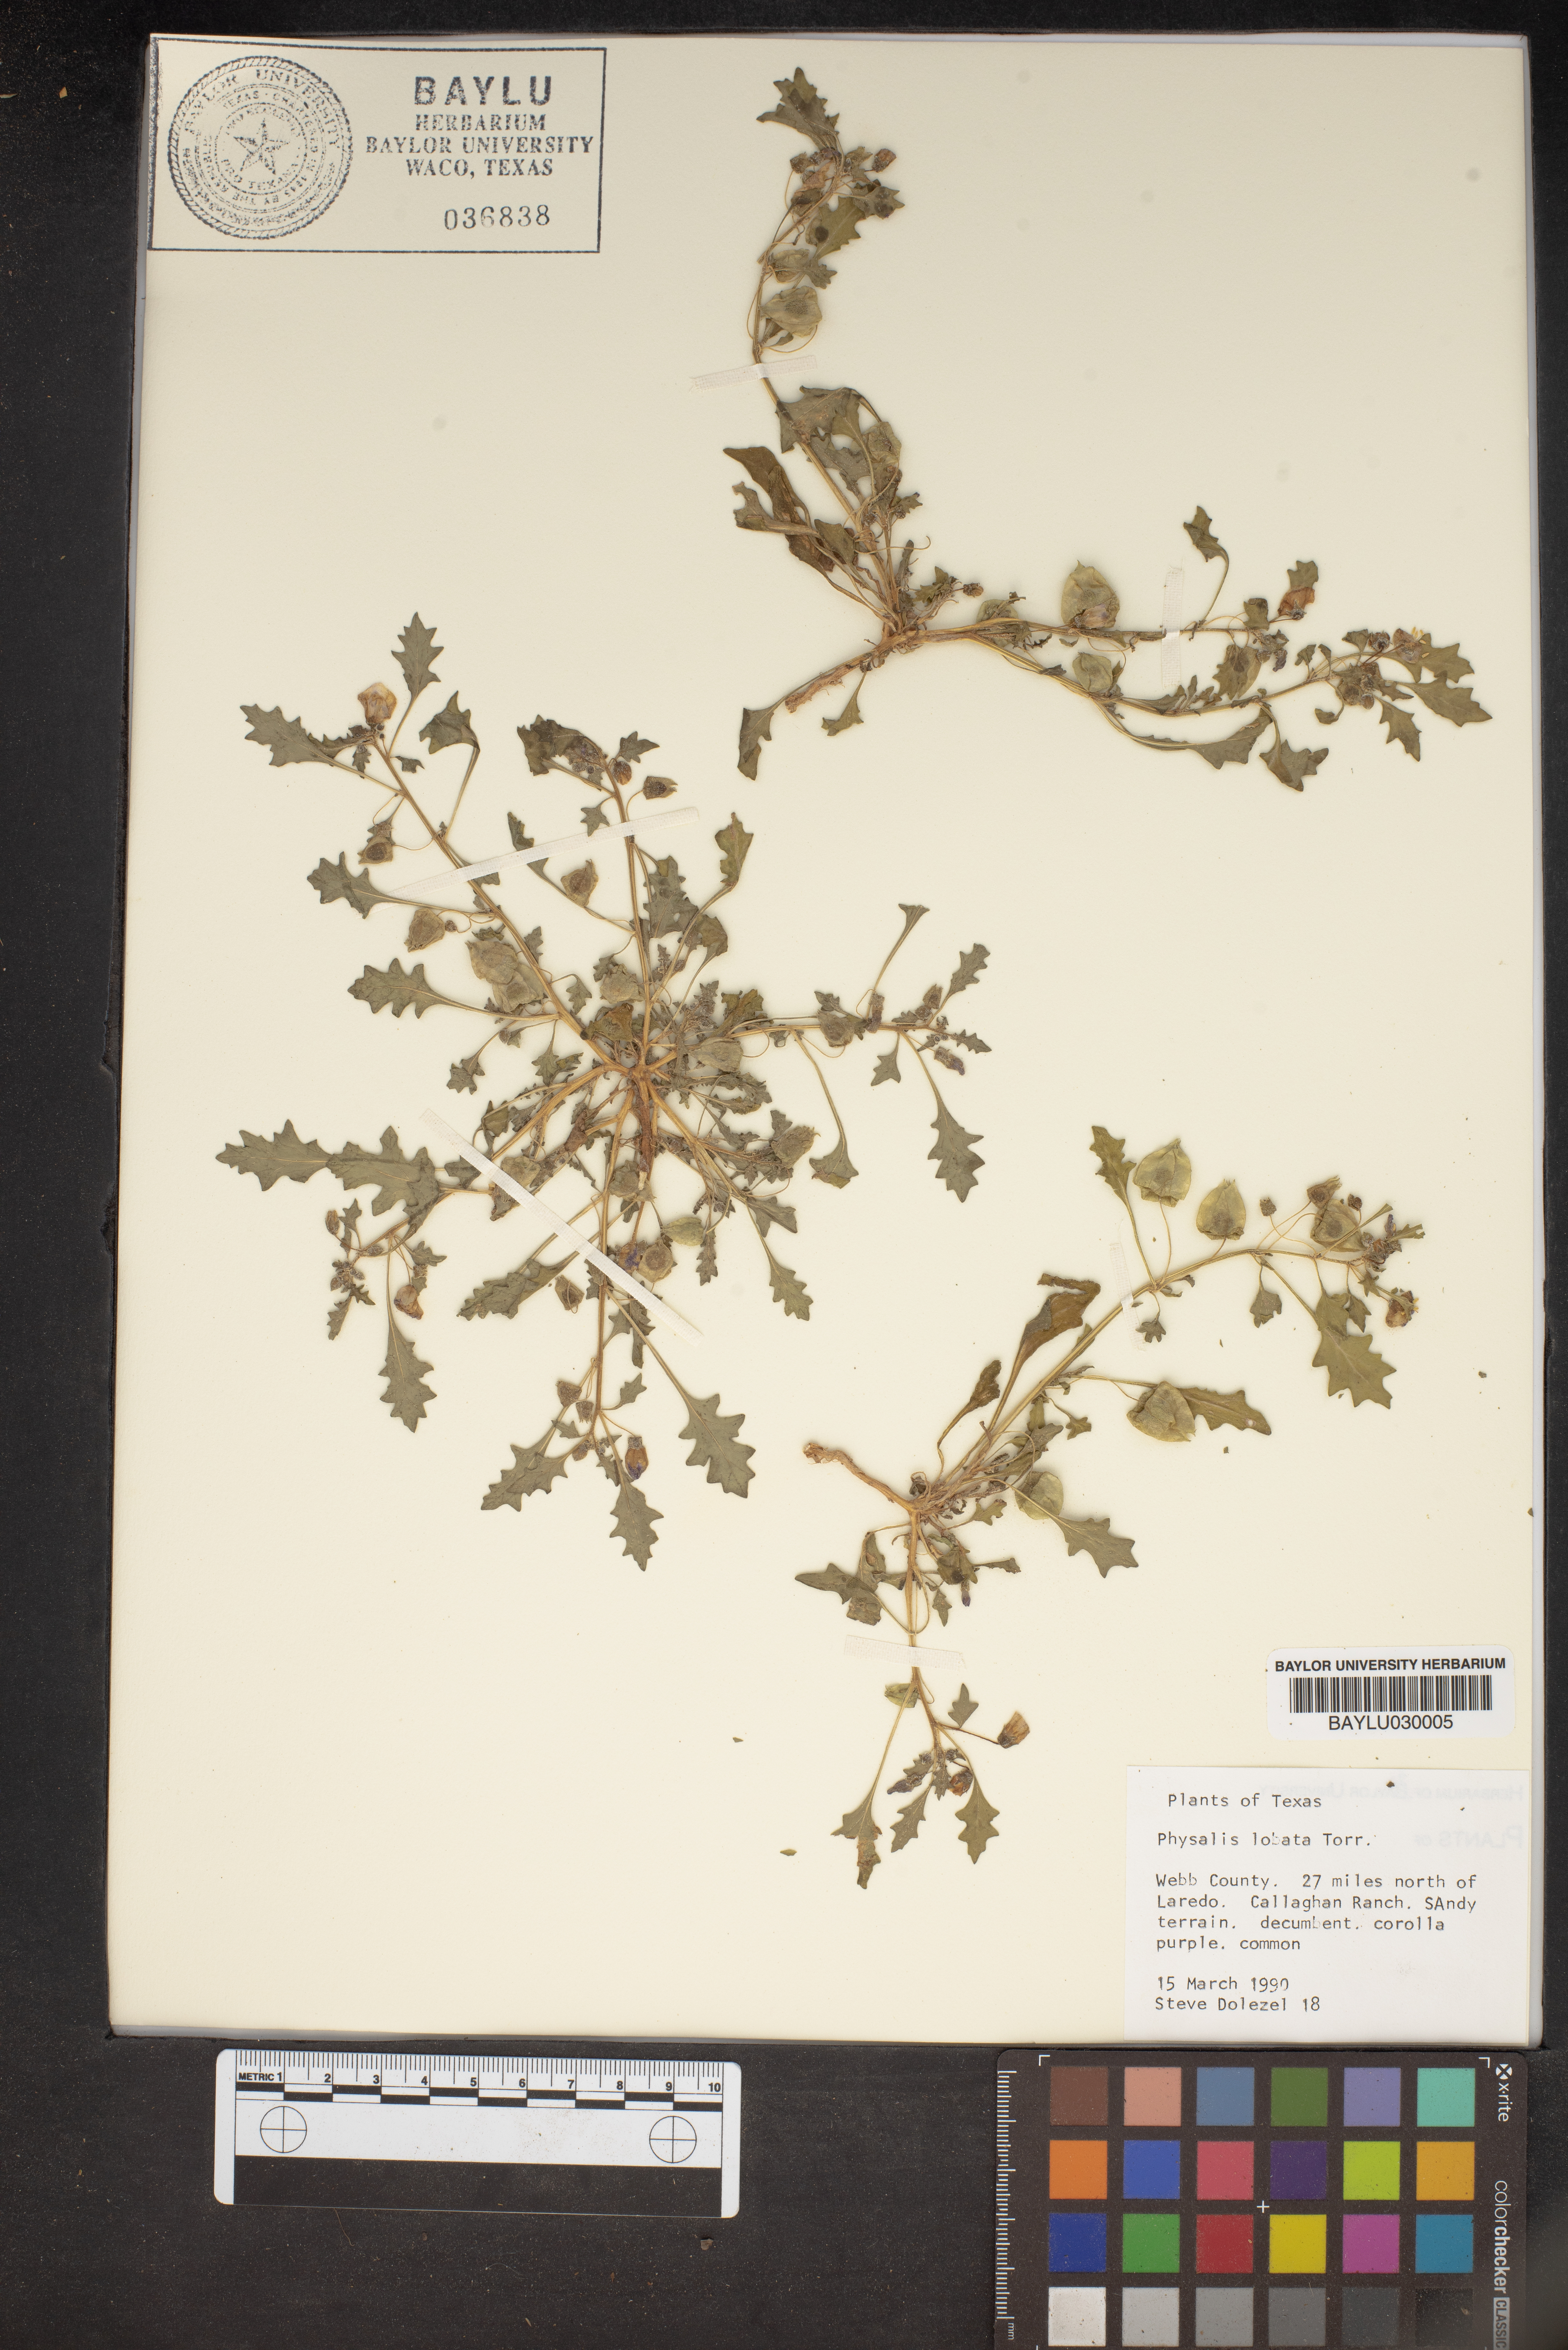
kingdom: Plantae
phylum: Tracheophyta
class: Magnoliopsida
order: Solanales
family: Solanaceae
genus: Quincula
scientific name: Quincula lobata
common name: Purple-ground-cherry
